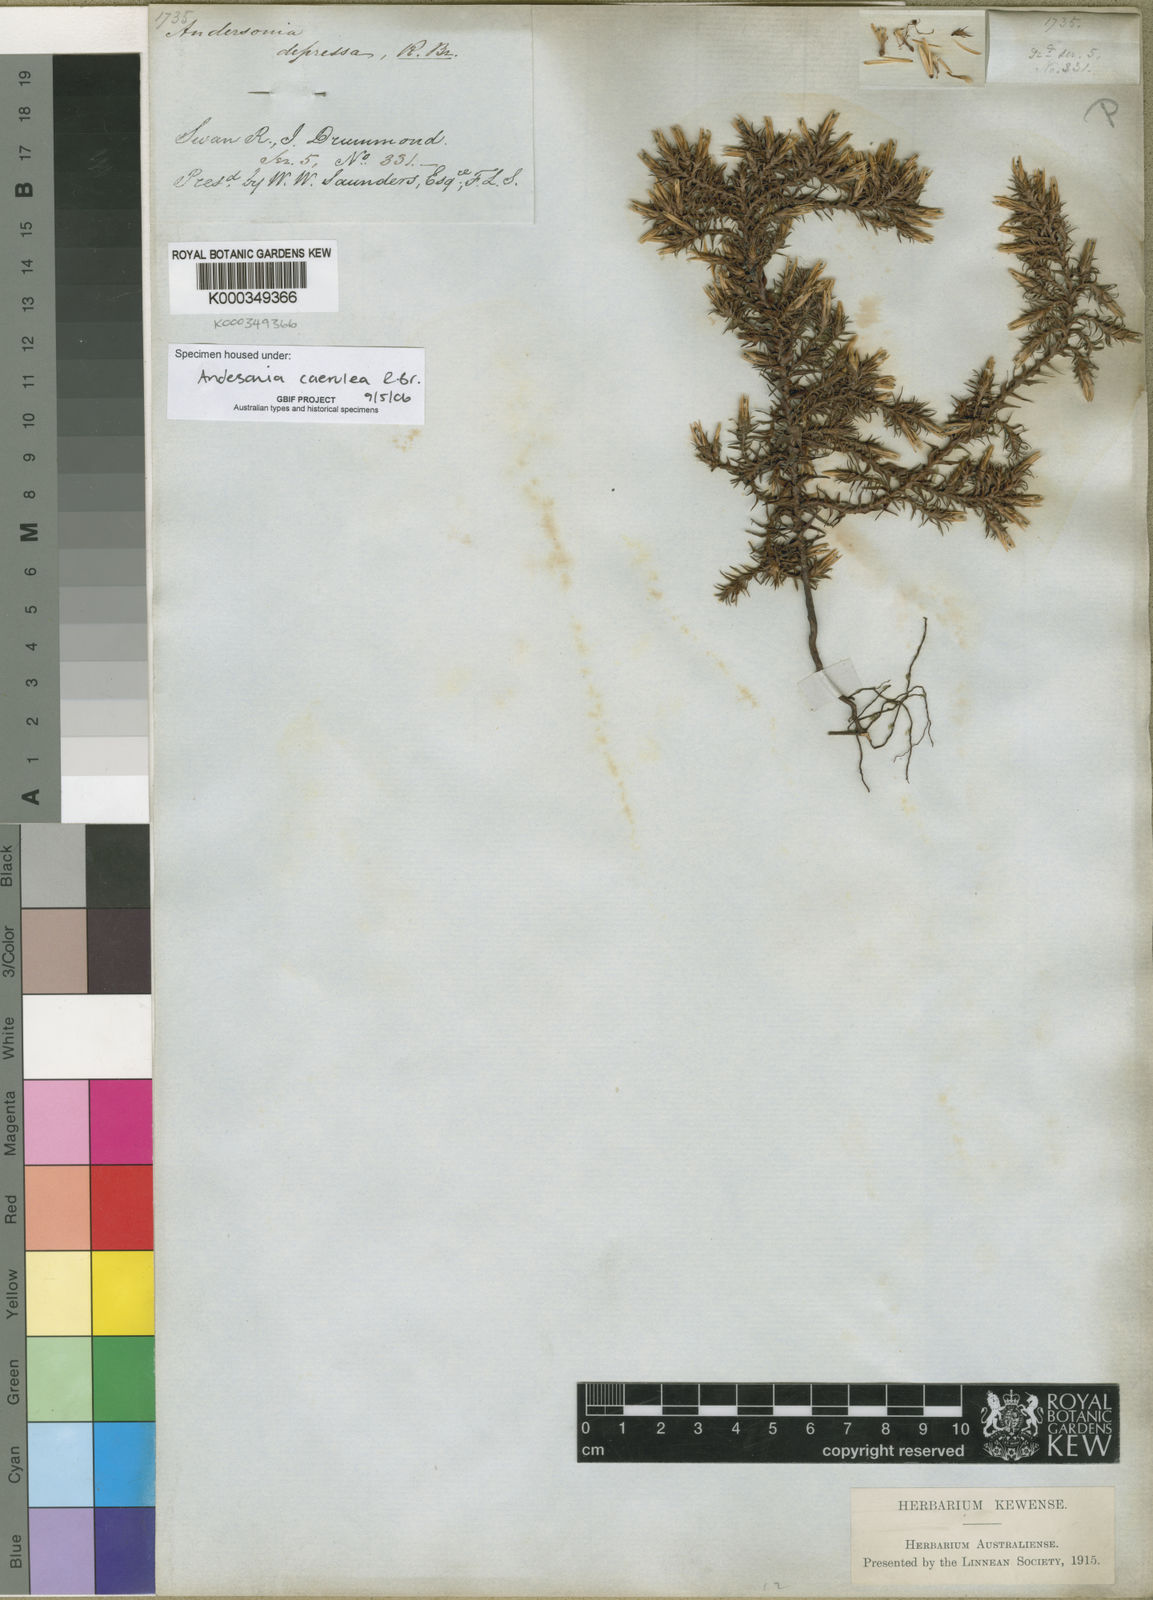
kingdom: Plantae
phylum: Tracheophyta
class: Magnoliopsida
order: Ericales
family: Ericaceae
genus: Andersonia
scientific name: Andersonia caerulea
